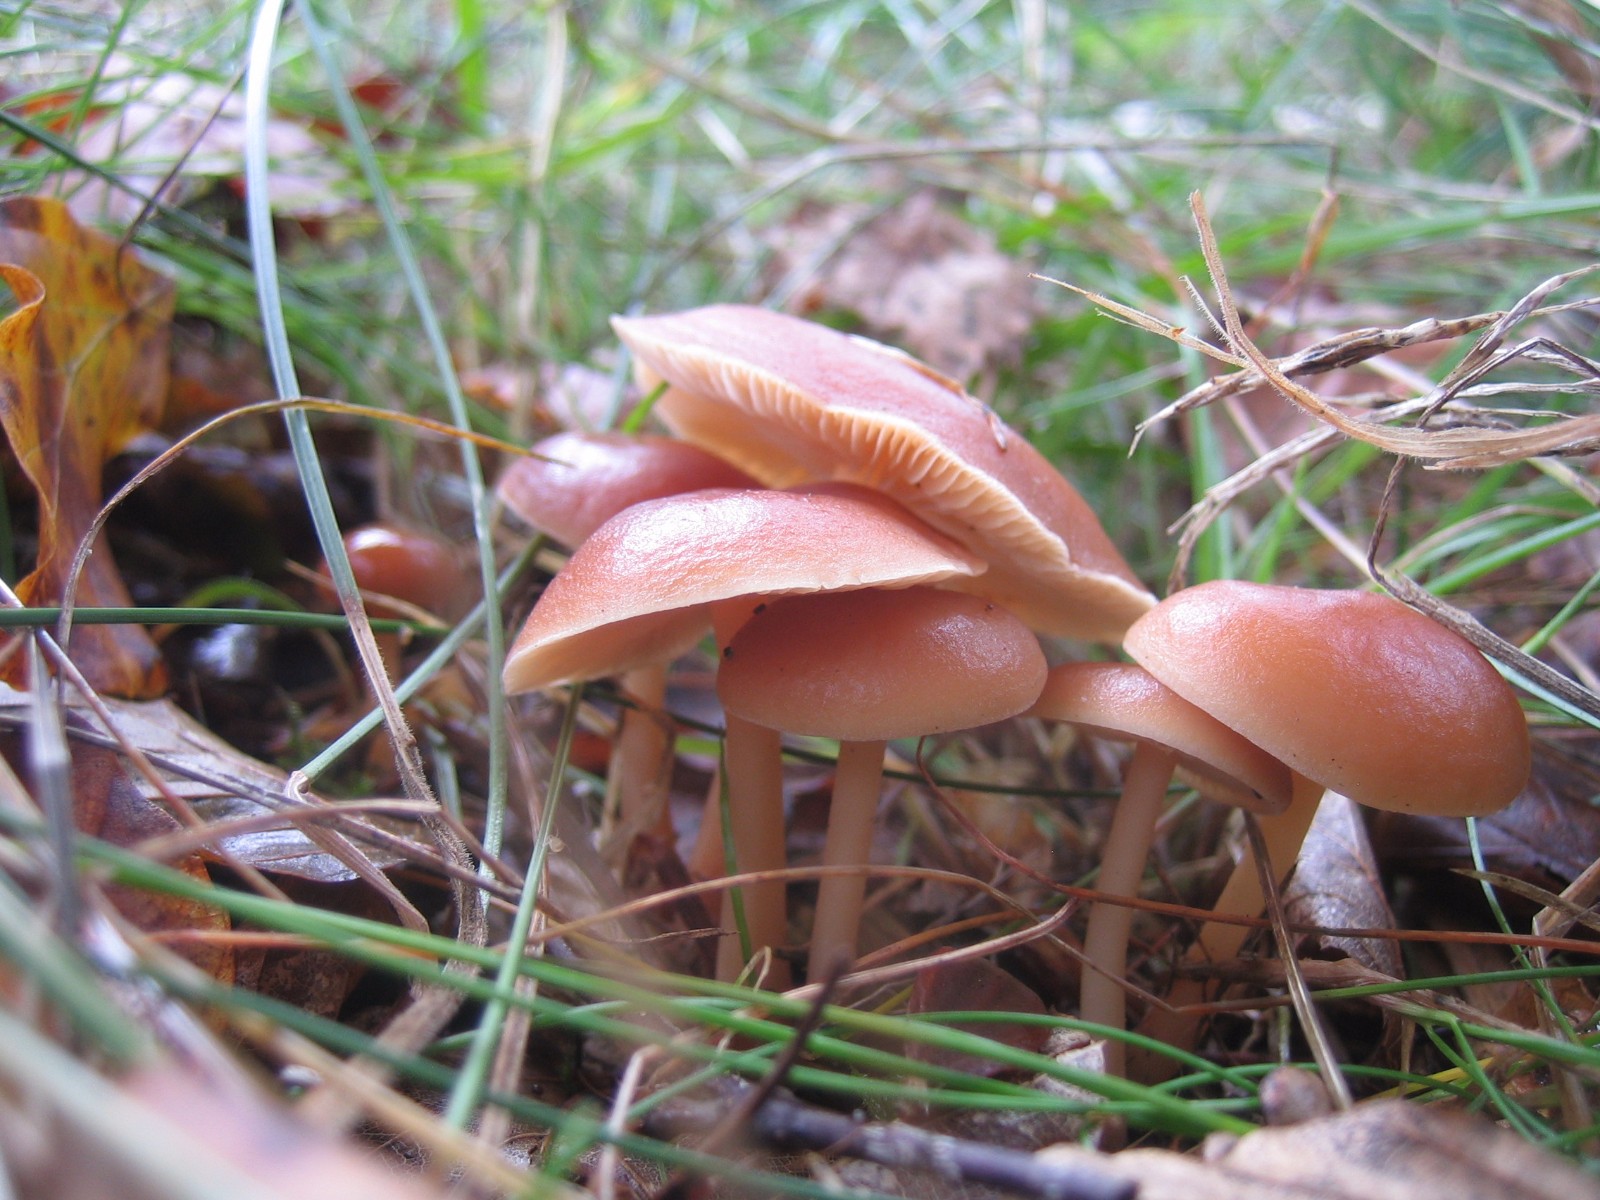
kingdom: Fungi
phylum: Basidiomycota
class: Agaricomycetes
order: Agaricales
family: Omphalotaceae
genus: Gymnopus
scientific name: Gymnopus
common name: fladhat
